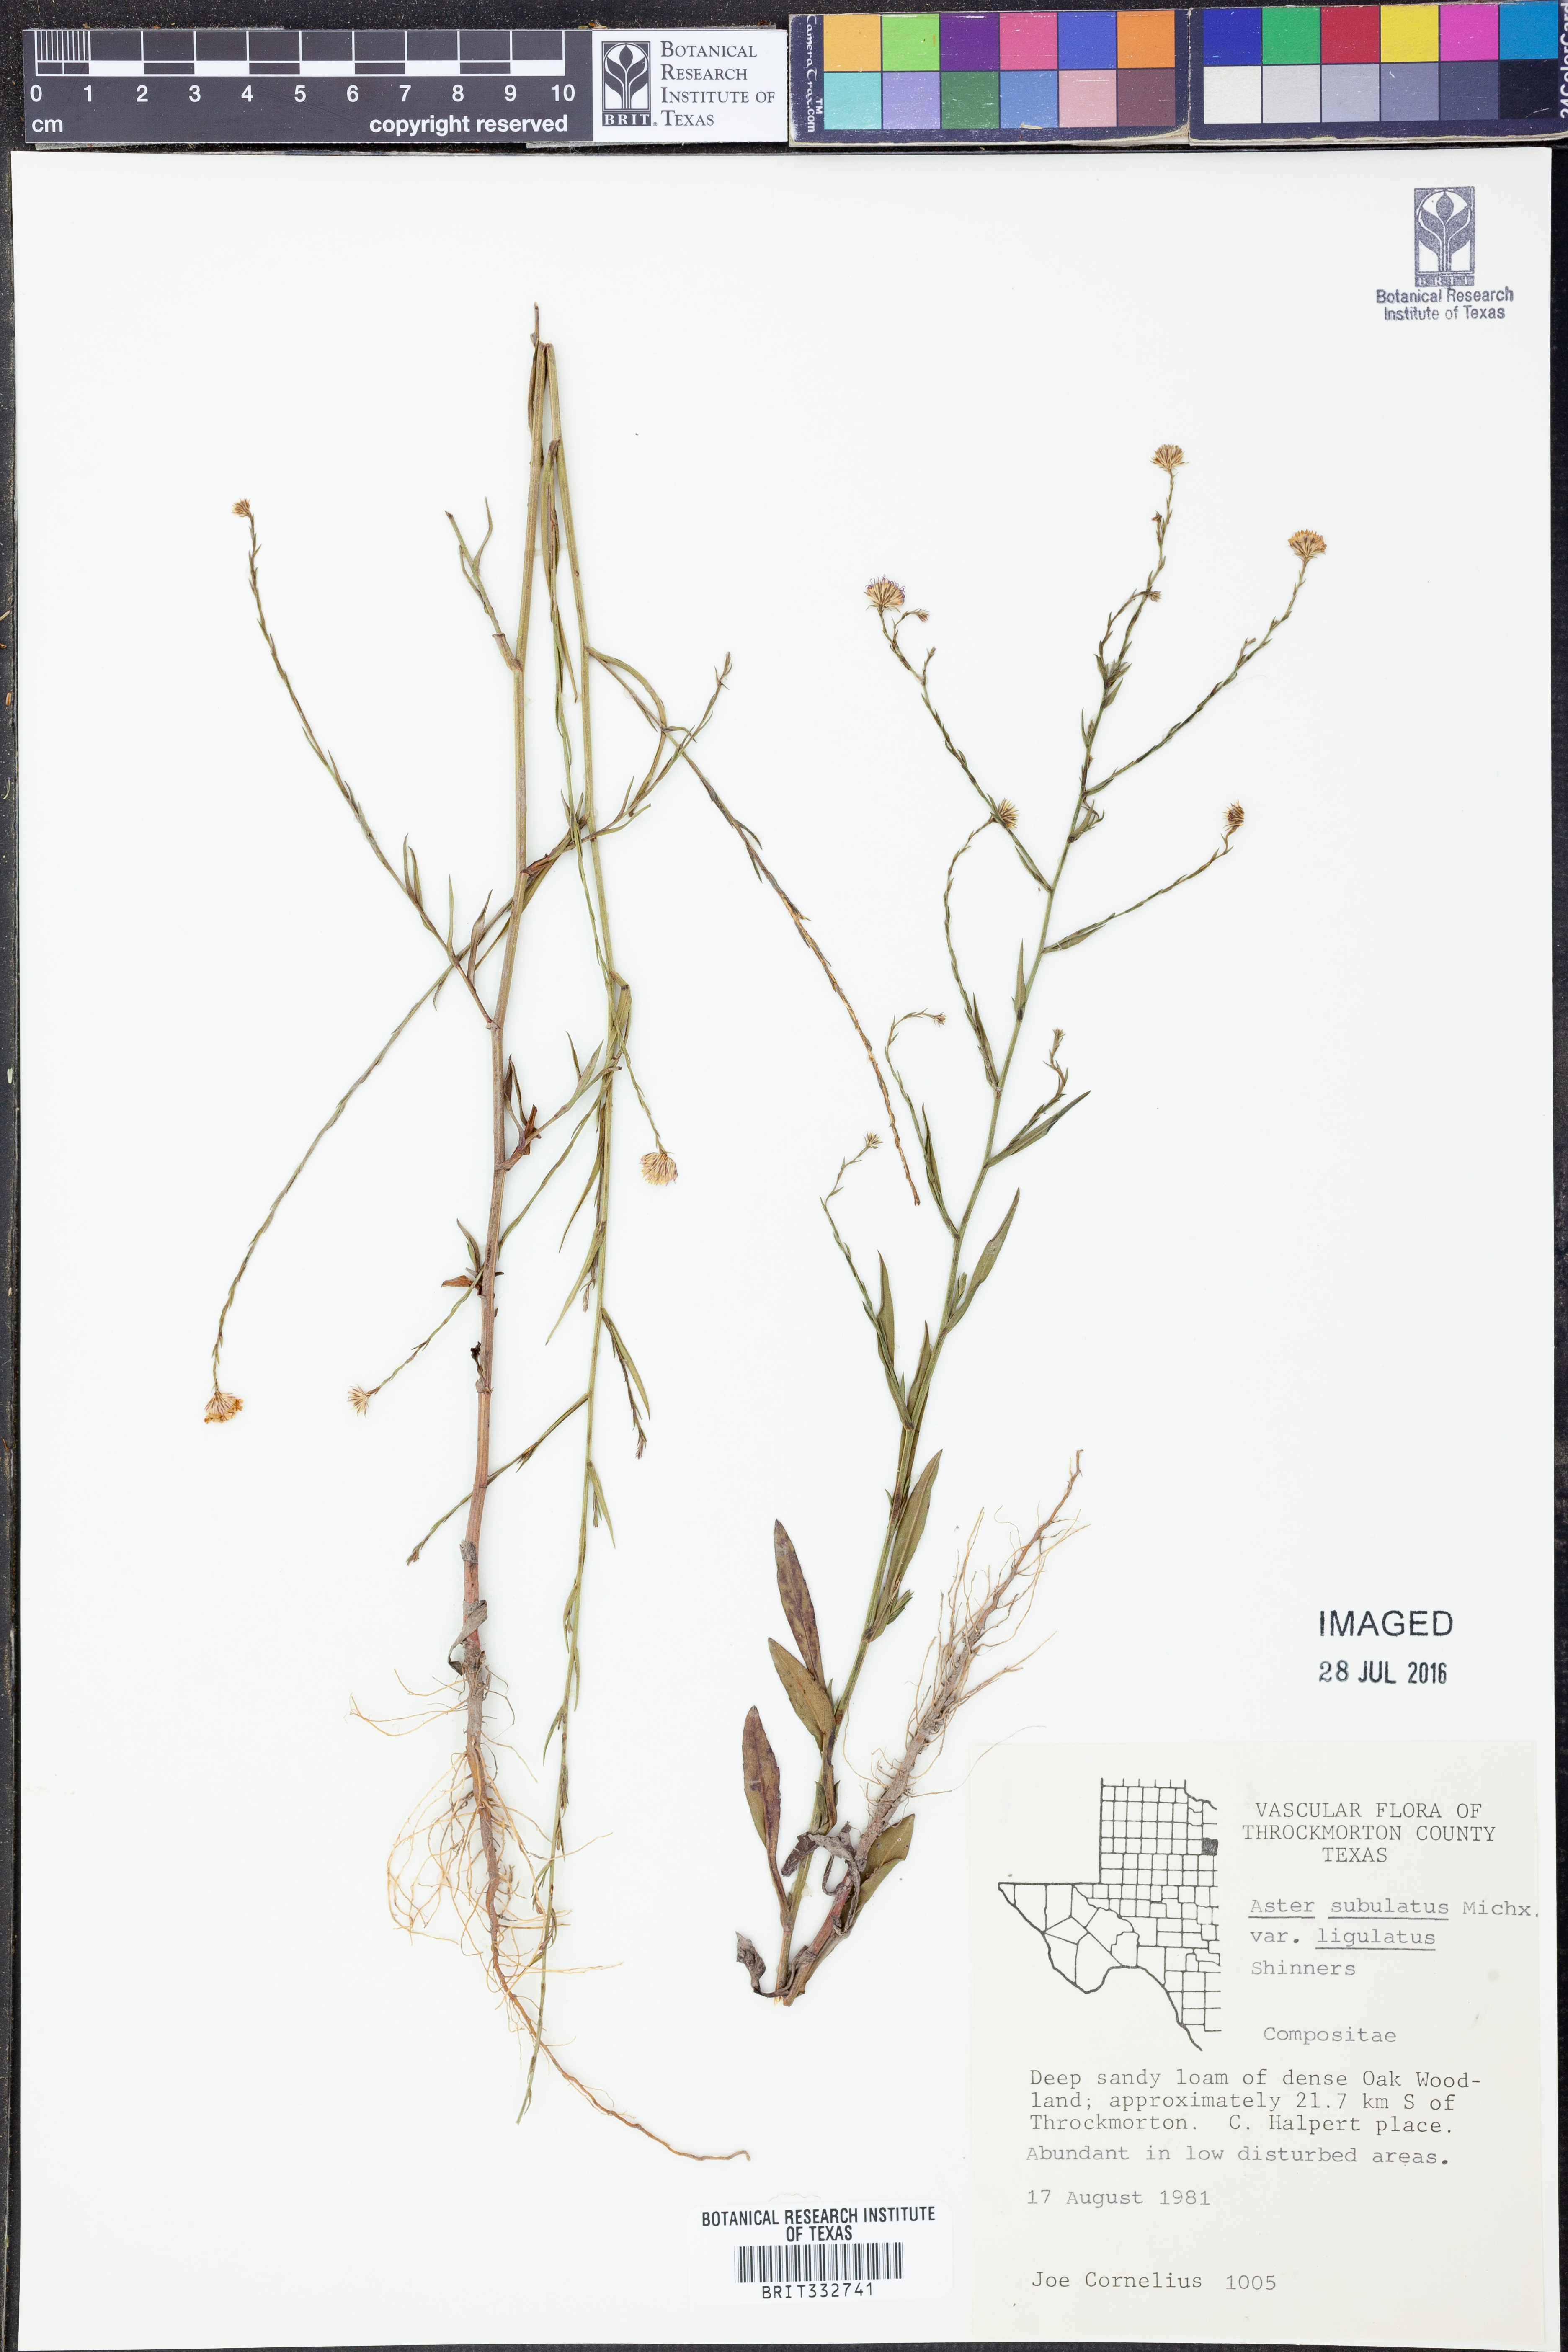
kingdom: Plantae
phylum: Tracheophyta
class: Magnoliopsida
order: Asterales
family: Asteraceae
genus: Symphyotrichum
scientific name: Symphyotrichum divaricatum
